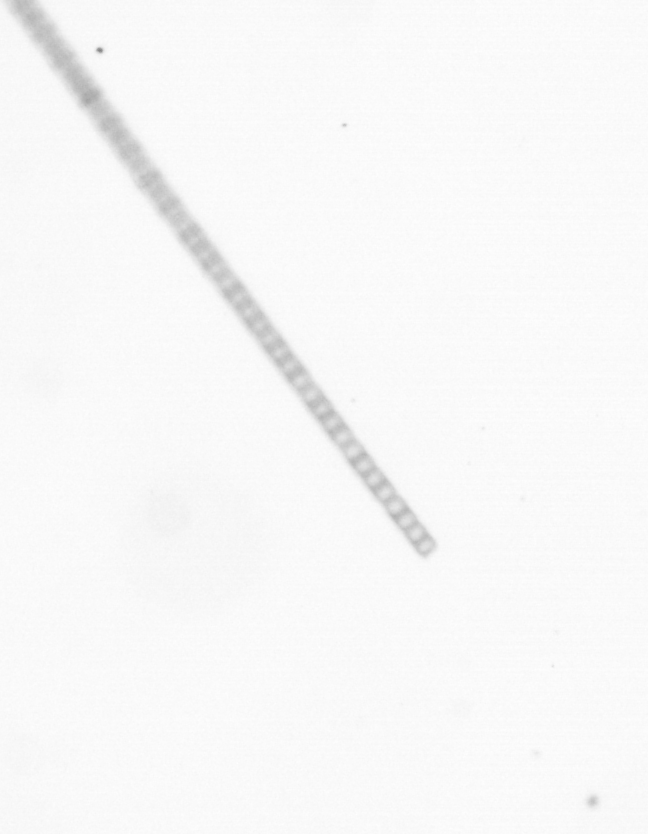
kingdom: Chromista
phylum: Ochrophyta
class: Bacillariophyceae
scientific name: Bacillariophyceae
